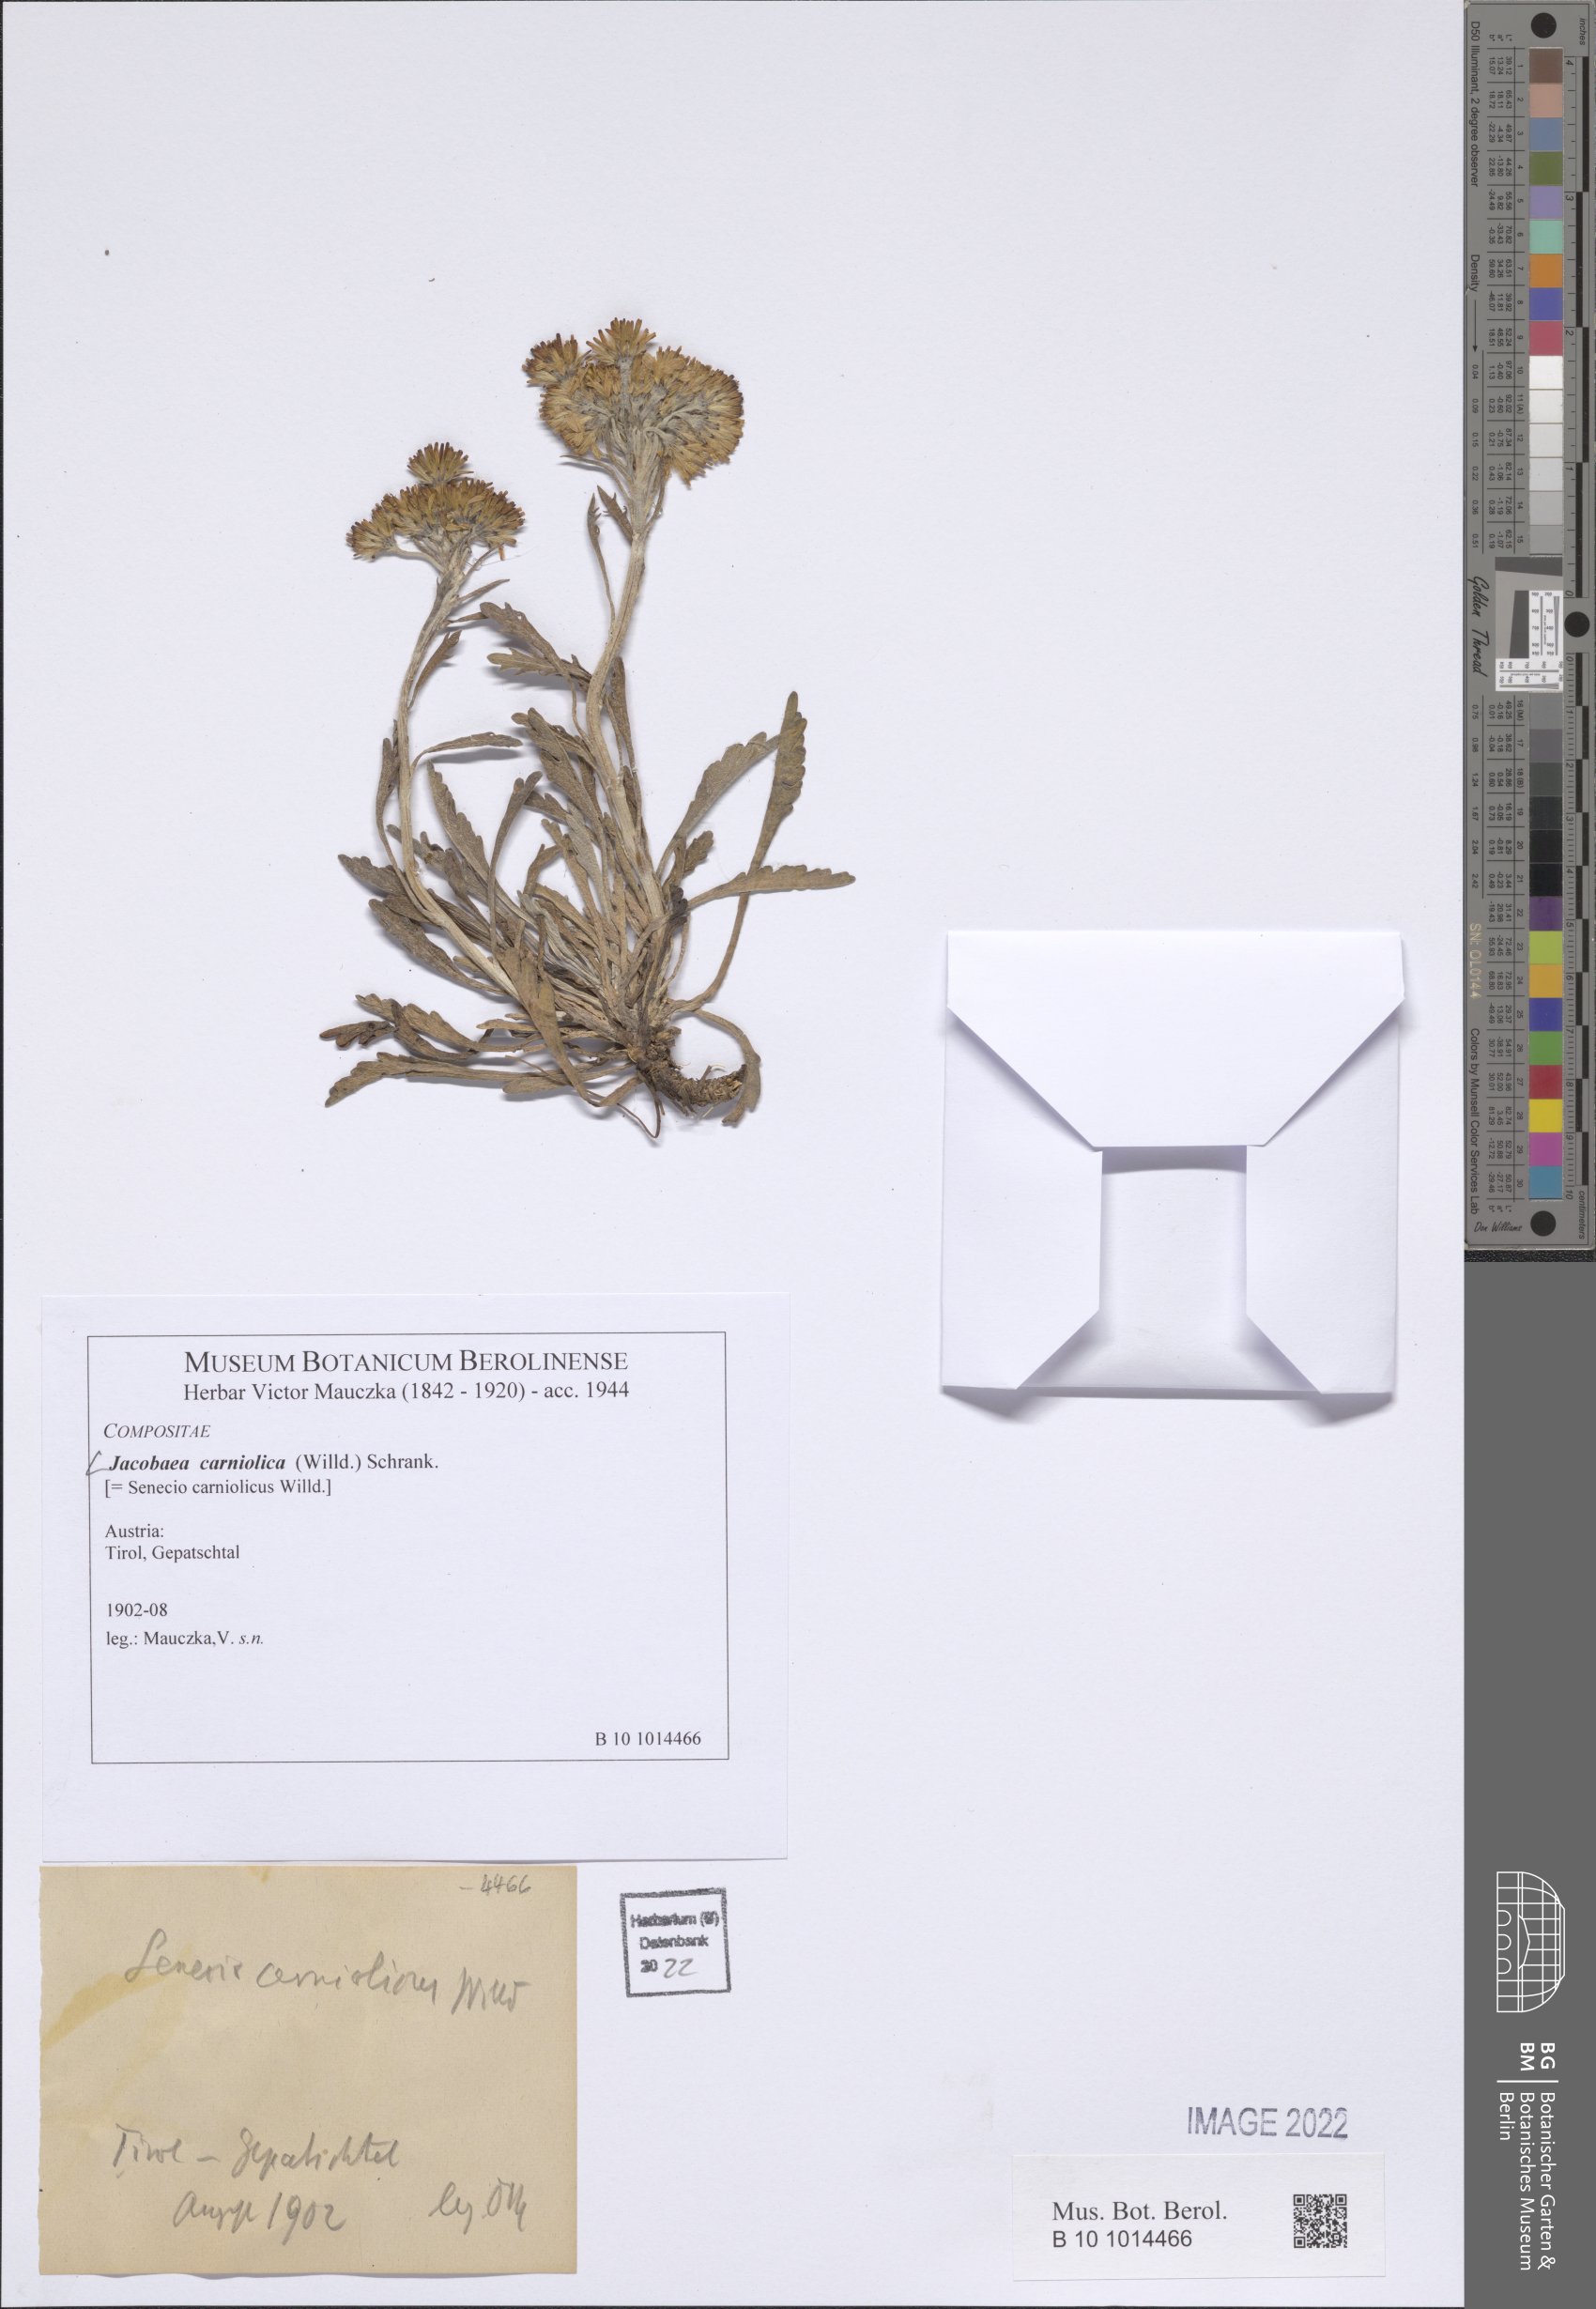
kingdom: Plantae
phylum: Tracheophyta
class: Magnoliopsida
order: Asterales
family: Asteraceae
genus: Jacobaea
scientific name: Jacobaea carniolica
